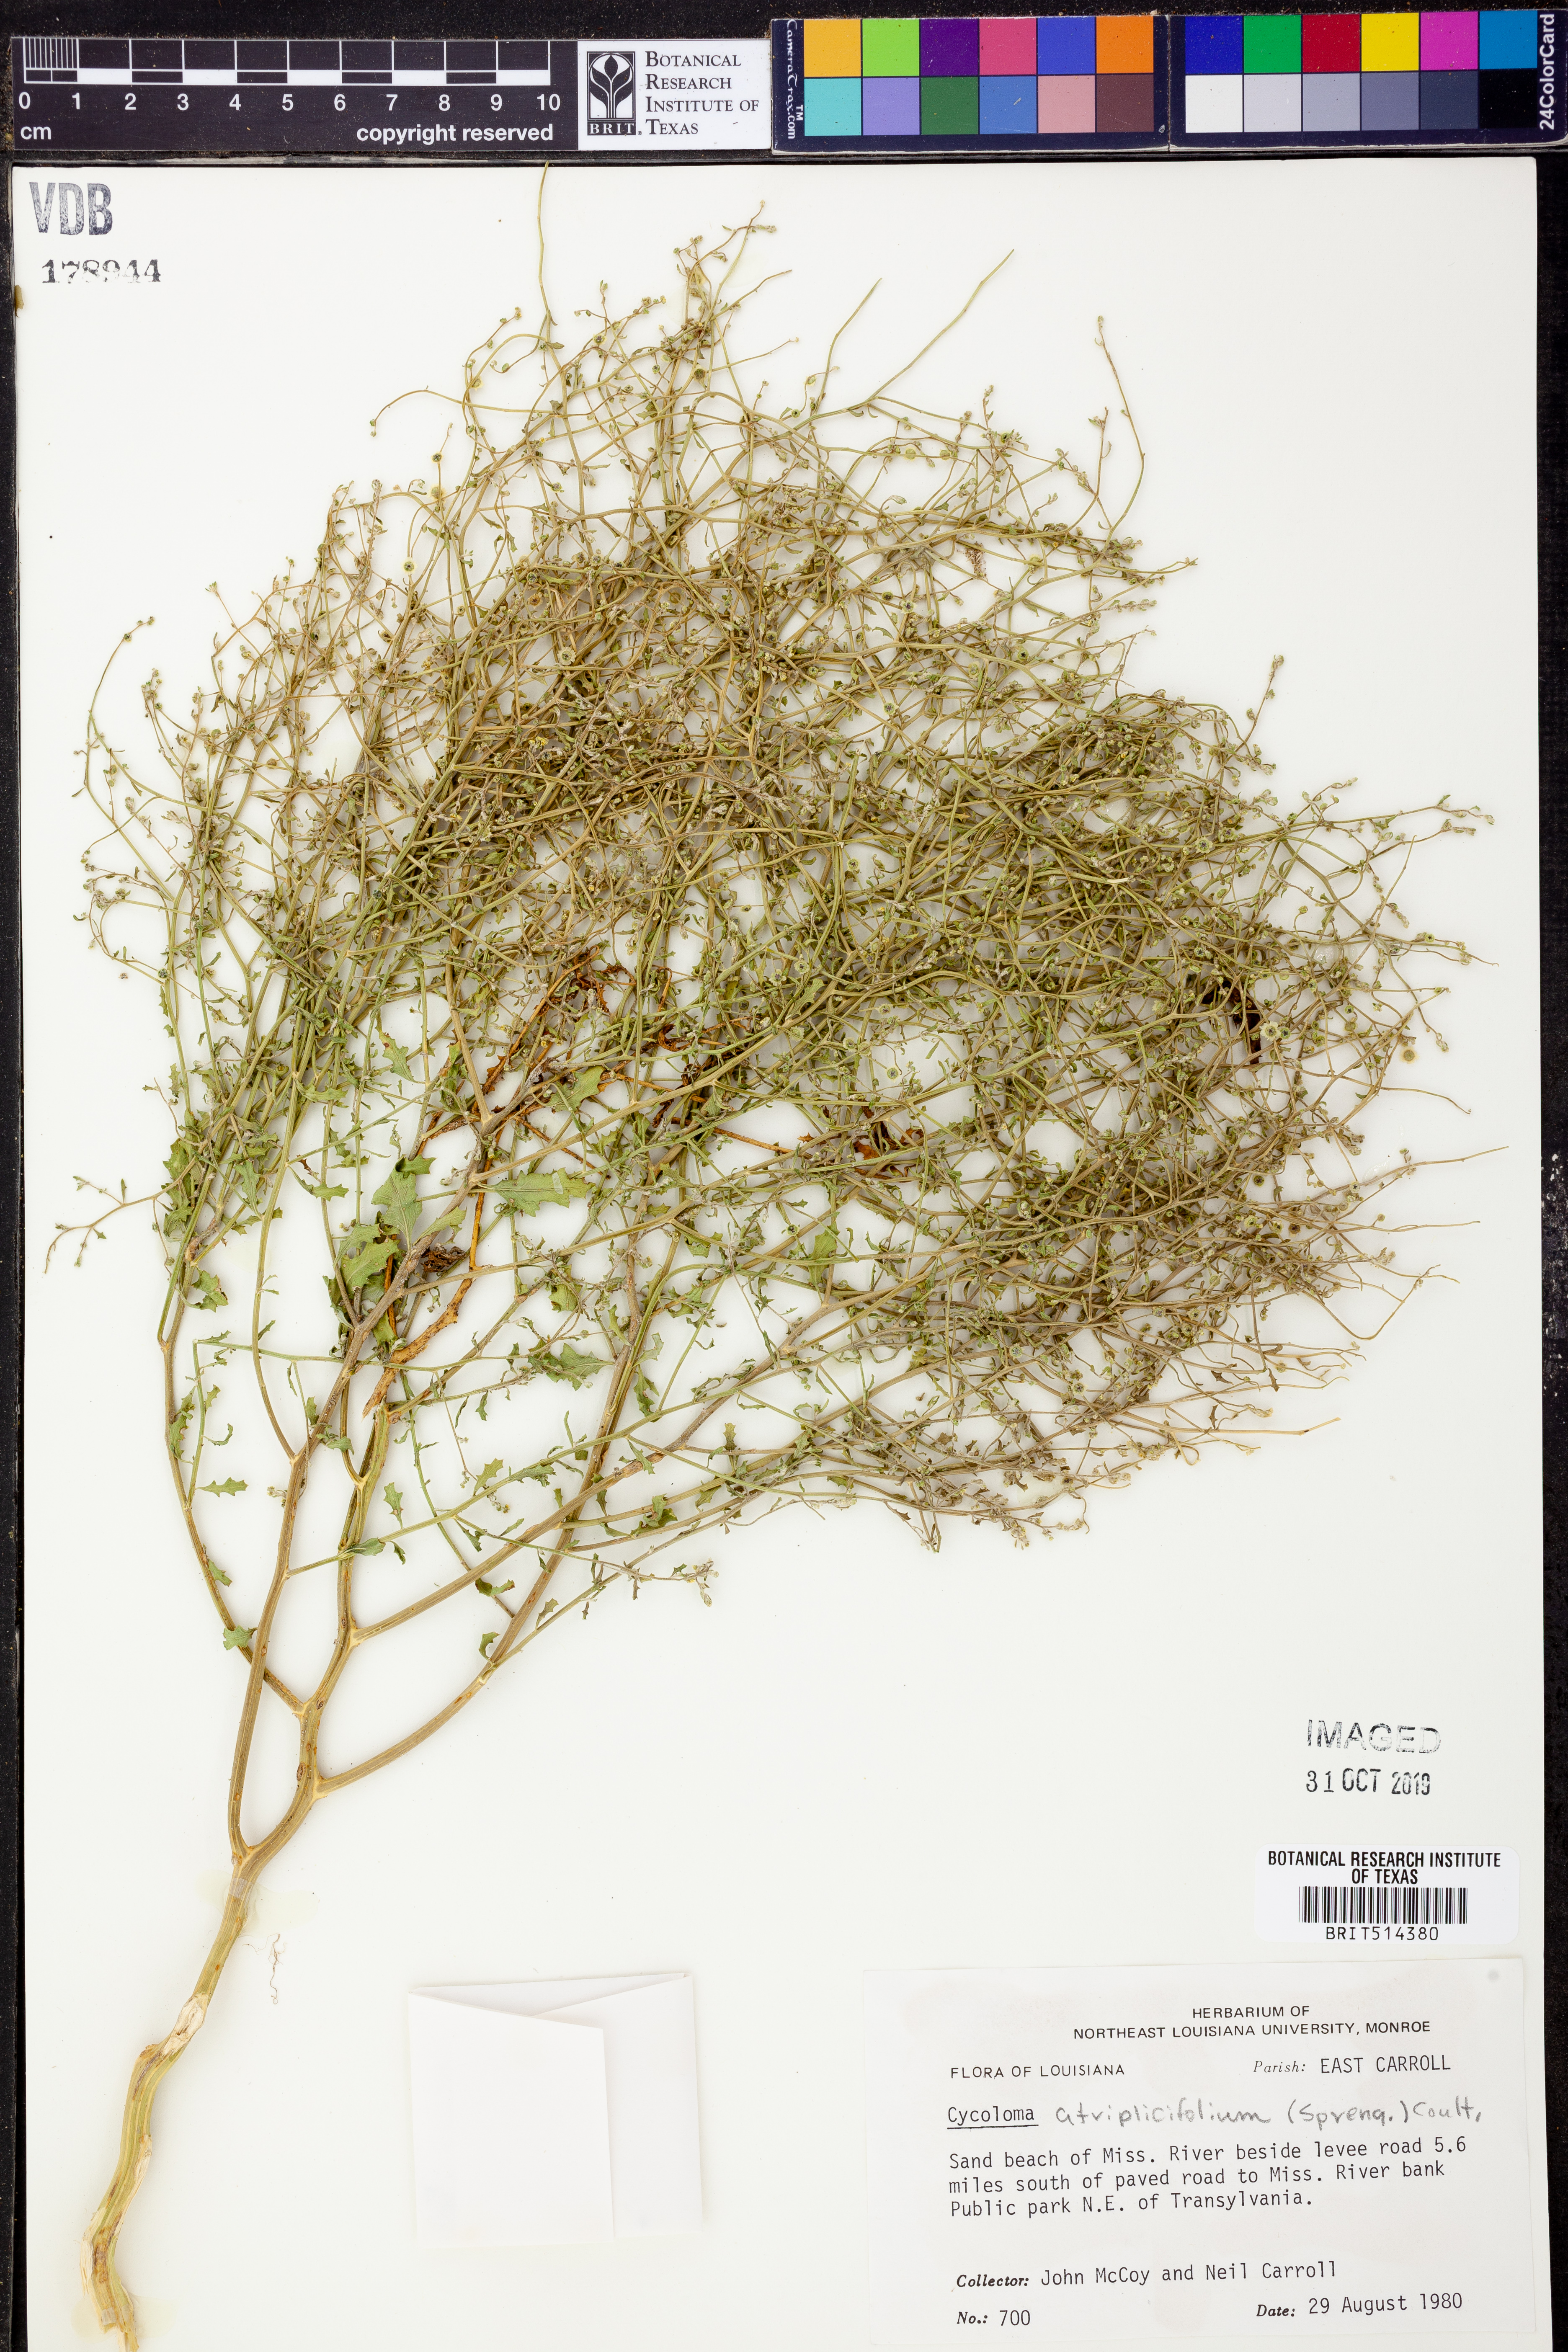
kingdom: Plantae
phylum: Tracheophyta
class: Magnoliopsida
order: Caryophyllales
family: Amaranthaceae
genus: Dysphania
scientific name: Dysphania atriplicifolia
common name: Plains tumbleweed
